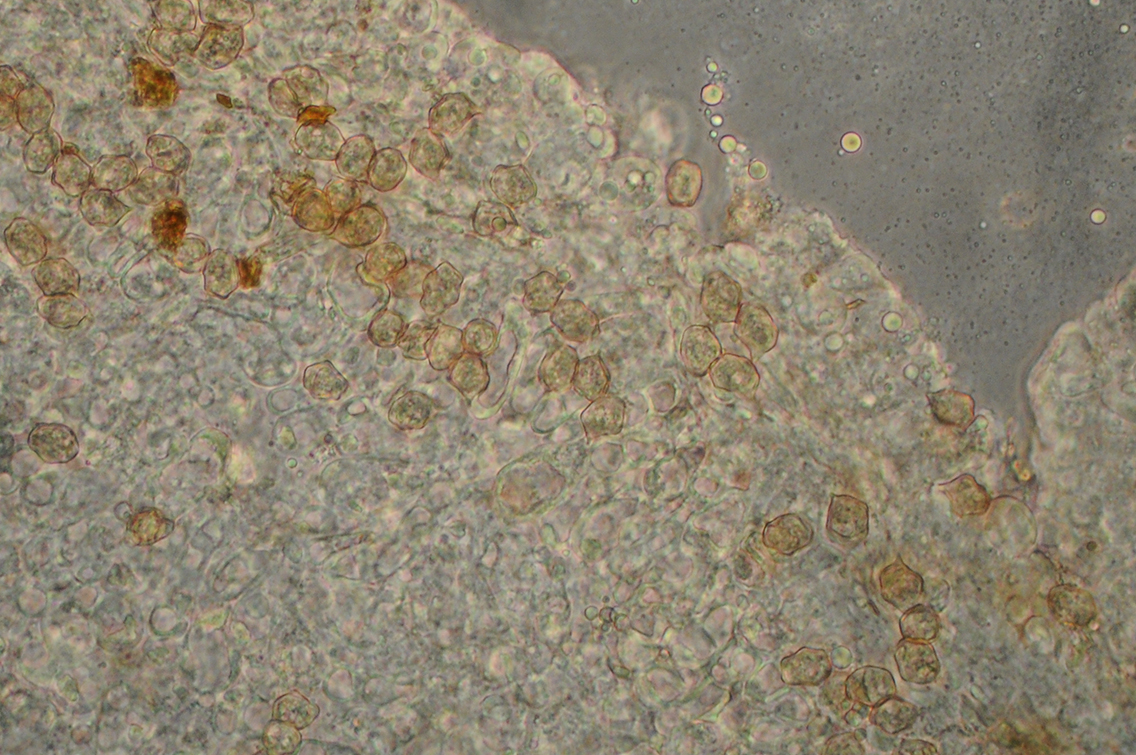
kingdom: Fungi
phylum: Basidiomycota
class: Agaricomycetes
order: Agaricales
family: Entolomataceae
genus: Entoloma
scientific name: Entoloma jahnii
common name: muslinge-rødblad
